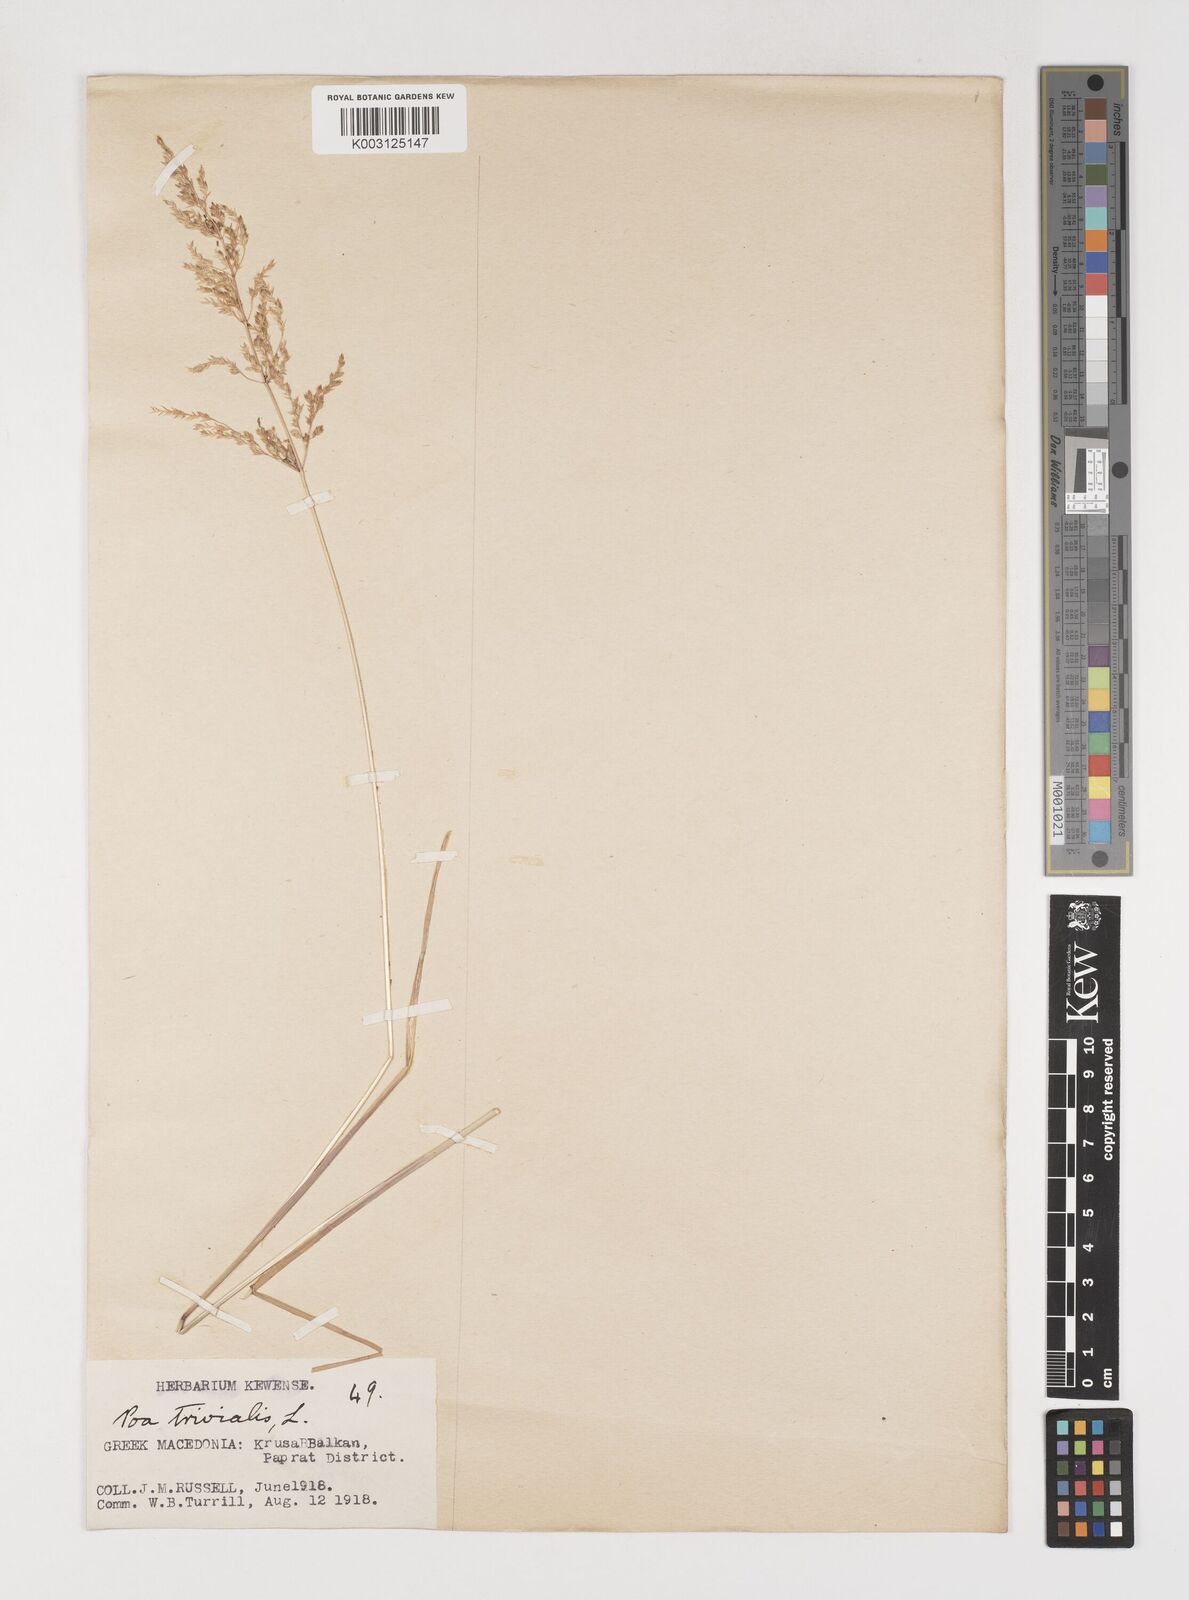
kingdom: Plantae
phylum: Tracheophyta
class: Liliopsida
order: Poales
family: Poaceae
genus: Poa
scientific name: Poa trivialis
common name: Rough bluegrass
